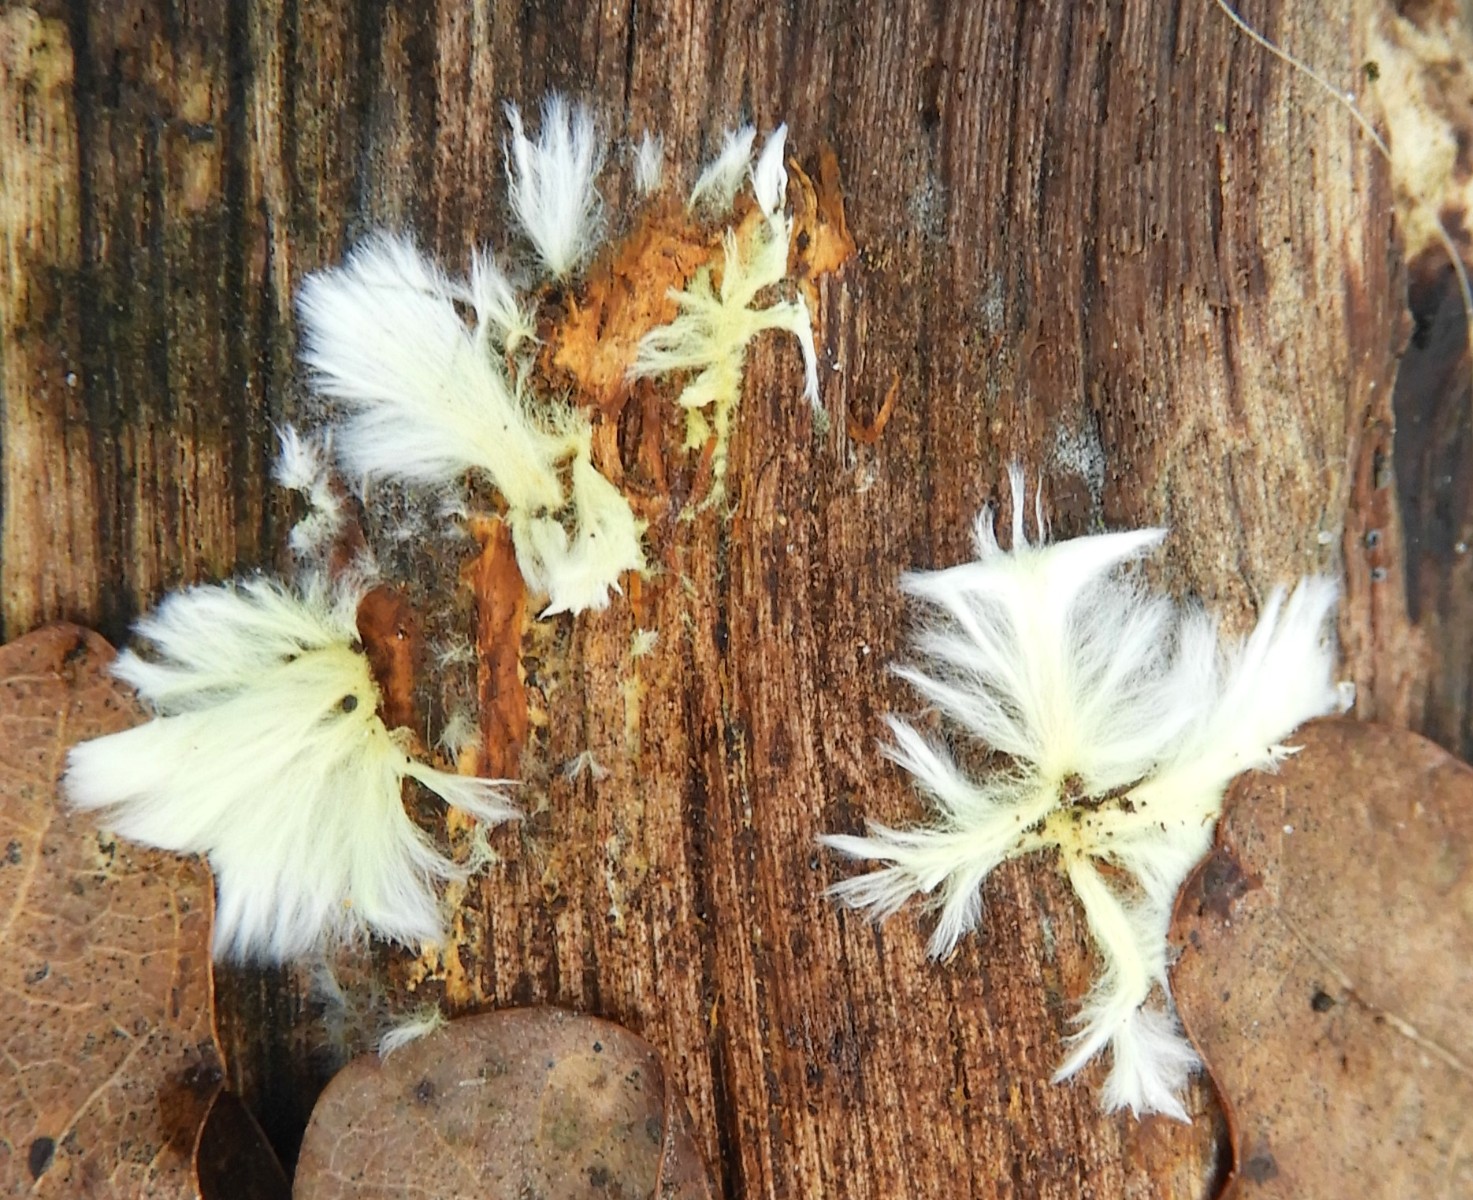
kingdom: Fungi
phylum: Basidiomycota
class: Agaricomycetes
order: Russulales
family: Xenasmataceae
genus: Xenasmatella
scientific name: Xenasmatella vaga
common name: svovl-strenghinde
